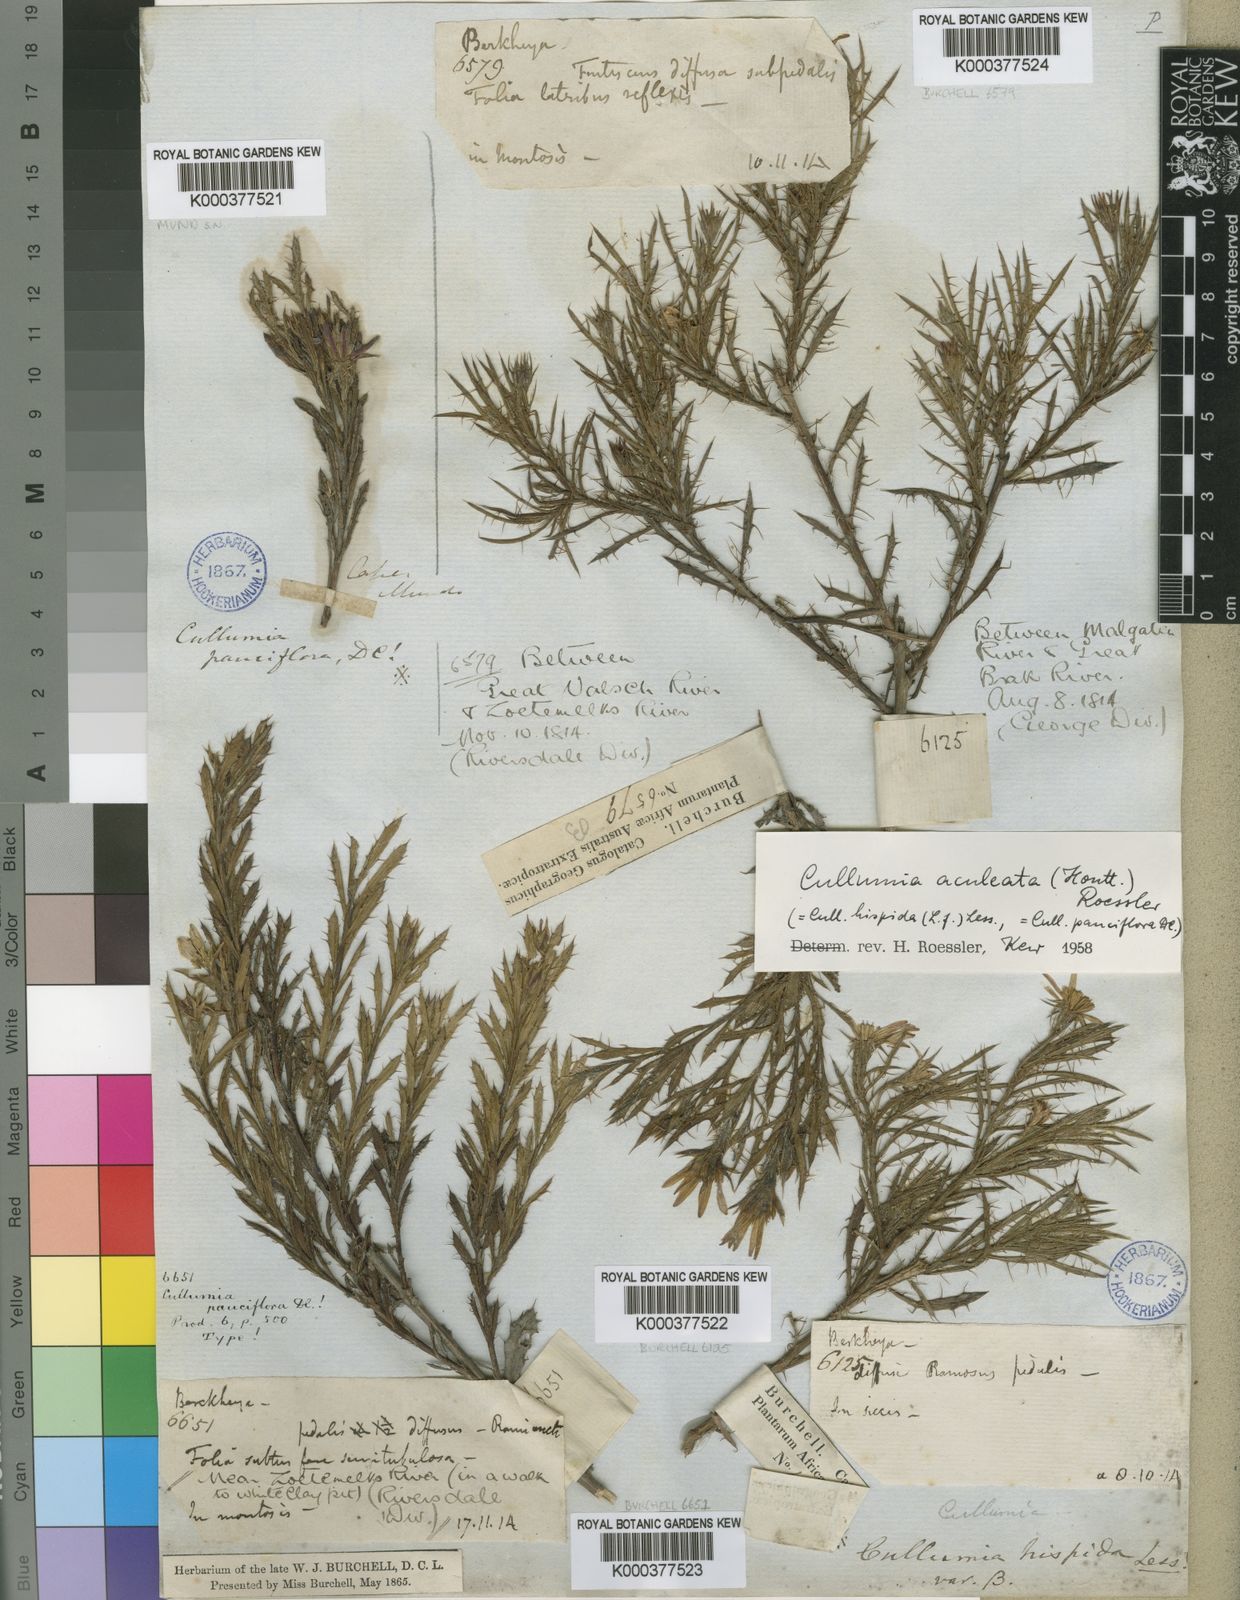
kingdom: Plantae
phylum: Tracheophyta
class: Magnoliopsida
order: Asterales
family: Asteraceae
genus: Cullumia
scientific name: Cullumia aculeata
